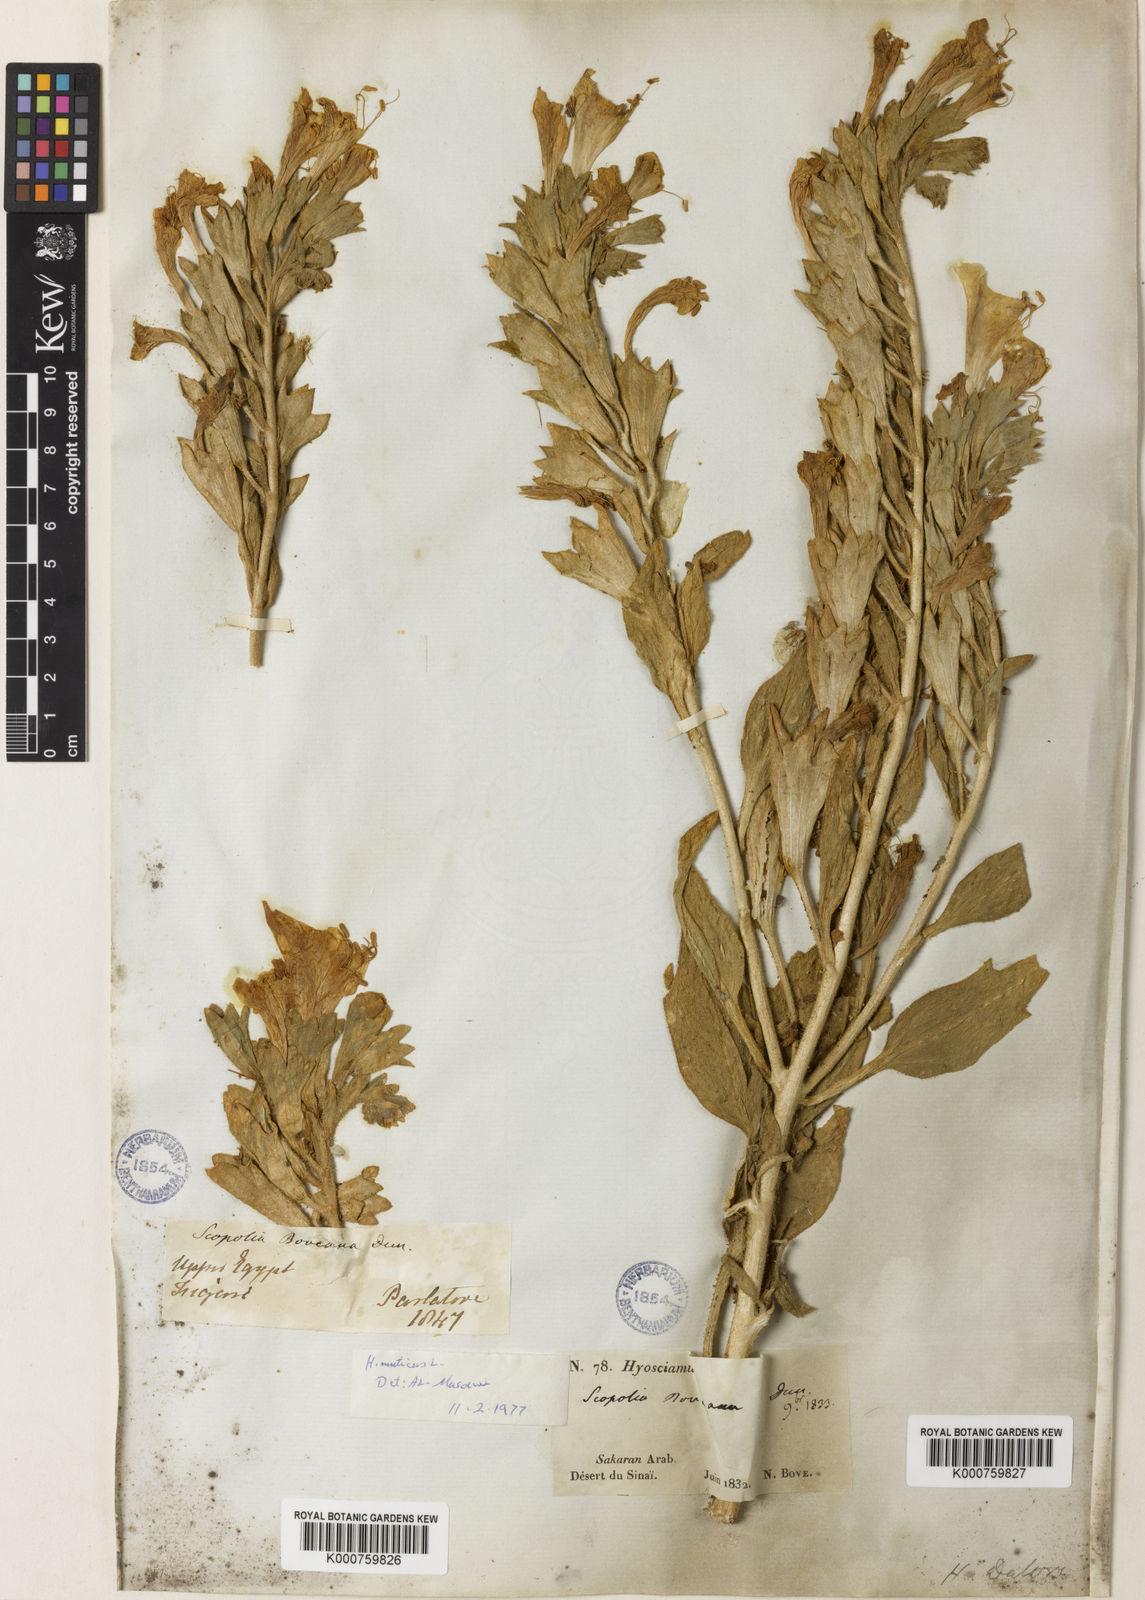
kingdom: Plantae
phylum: Tracheophyta
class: Magnoliopsida
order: Solanales
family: Solanaceae
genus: Hyoscyamus
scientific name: Hyoscyamus boveanus
